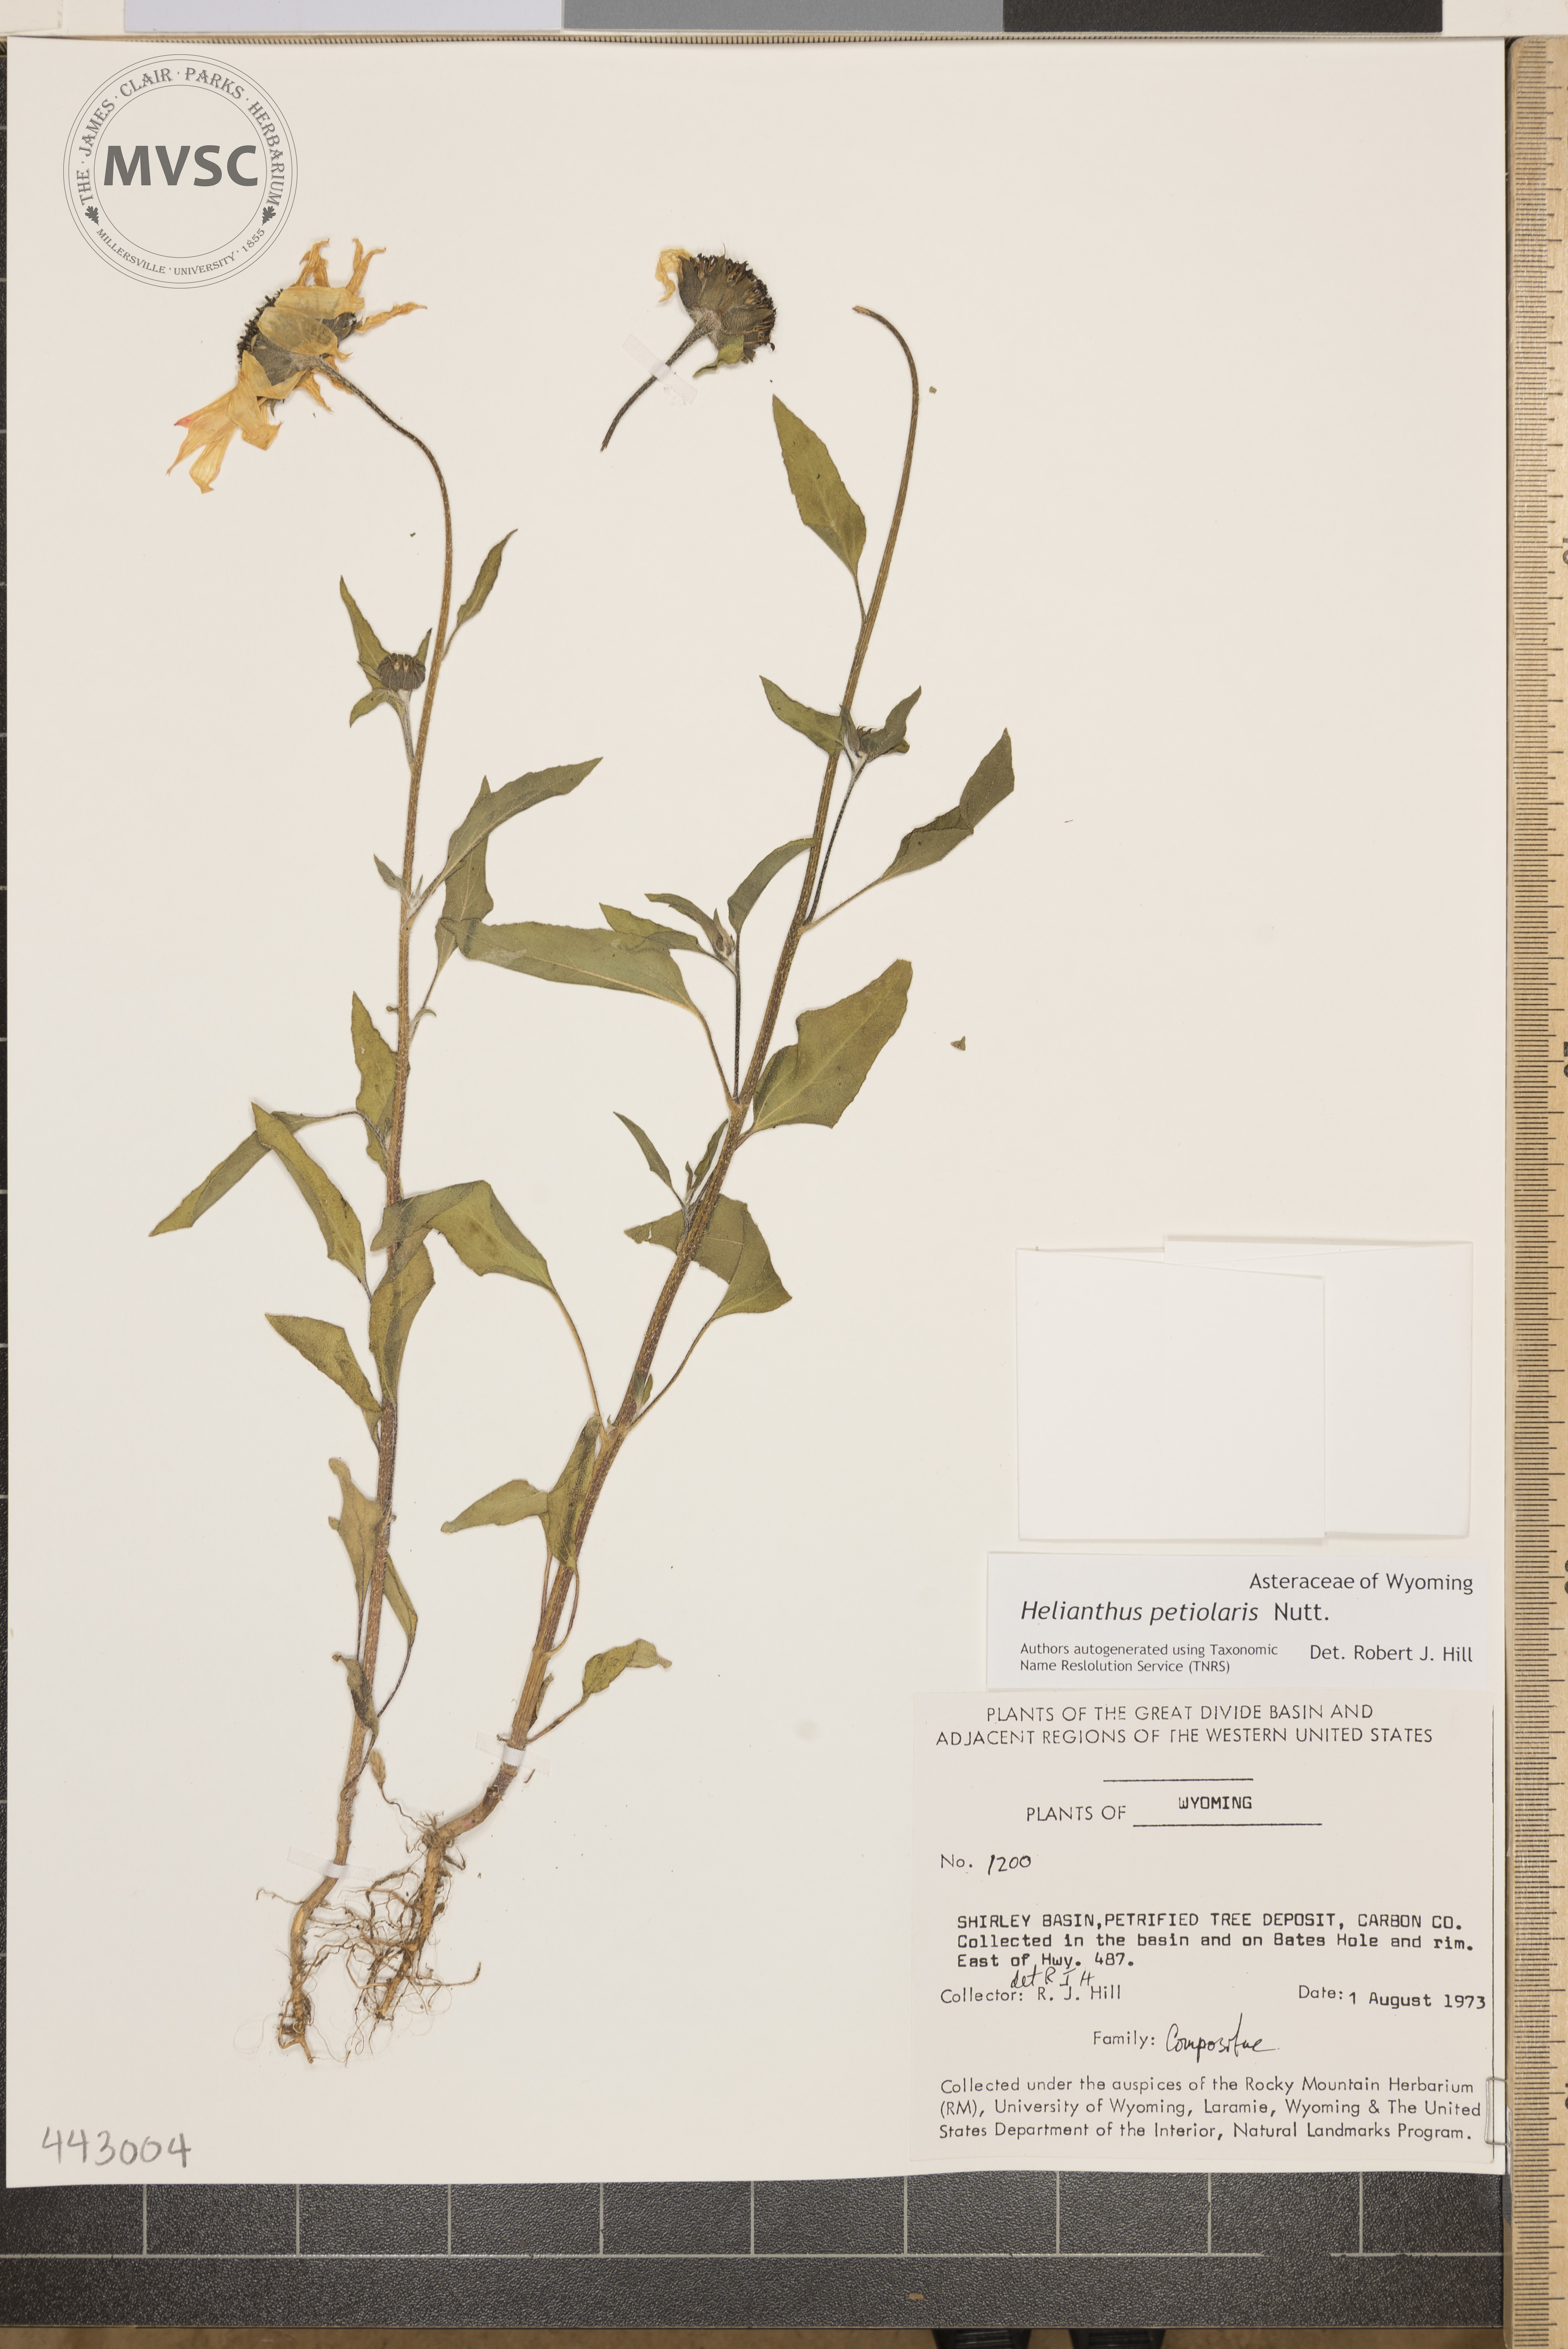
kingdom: Plantae
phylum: Tracheophyta
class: Magnoliopsida
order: Asterales
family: Asteraceae
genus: Helianthus
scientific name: Helianthus petiolaris
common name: Lesser sunflower
